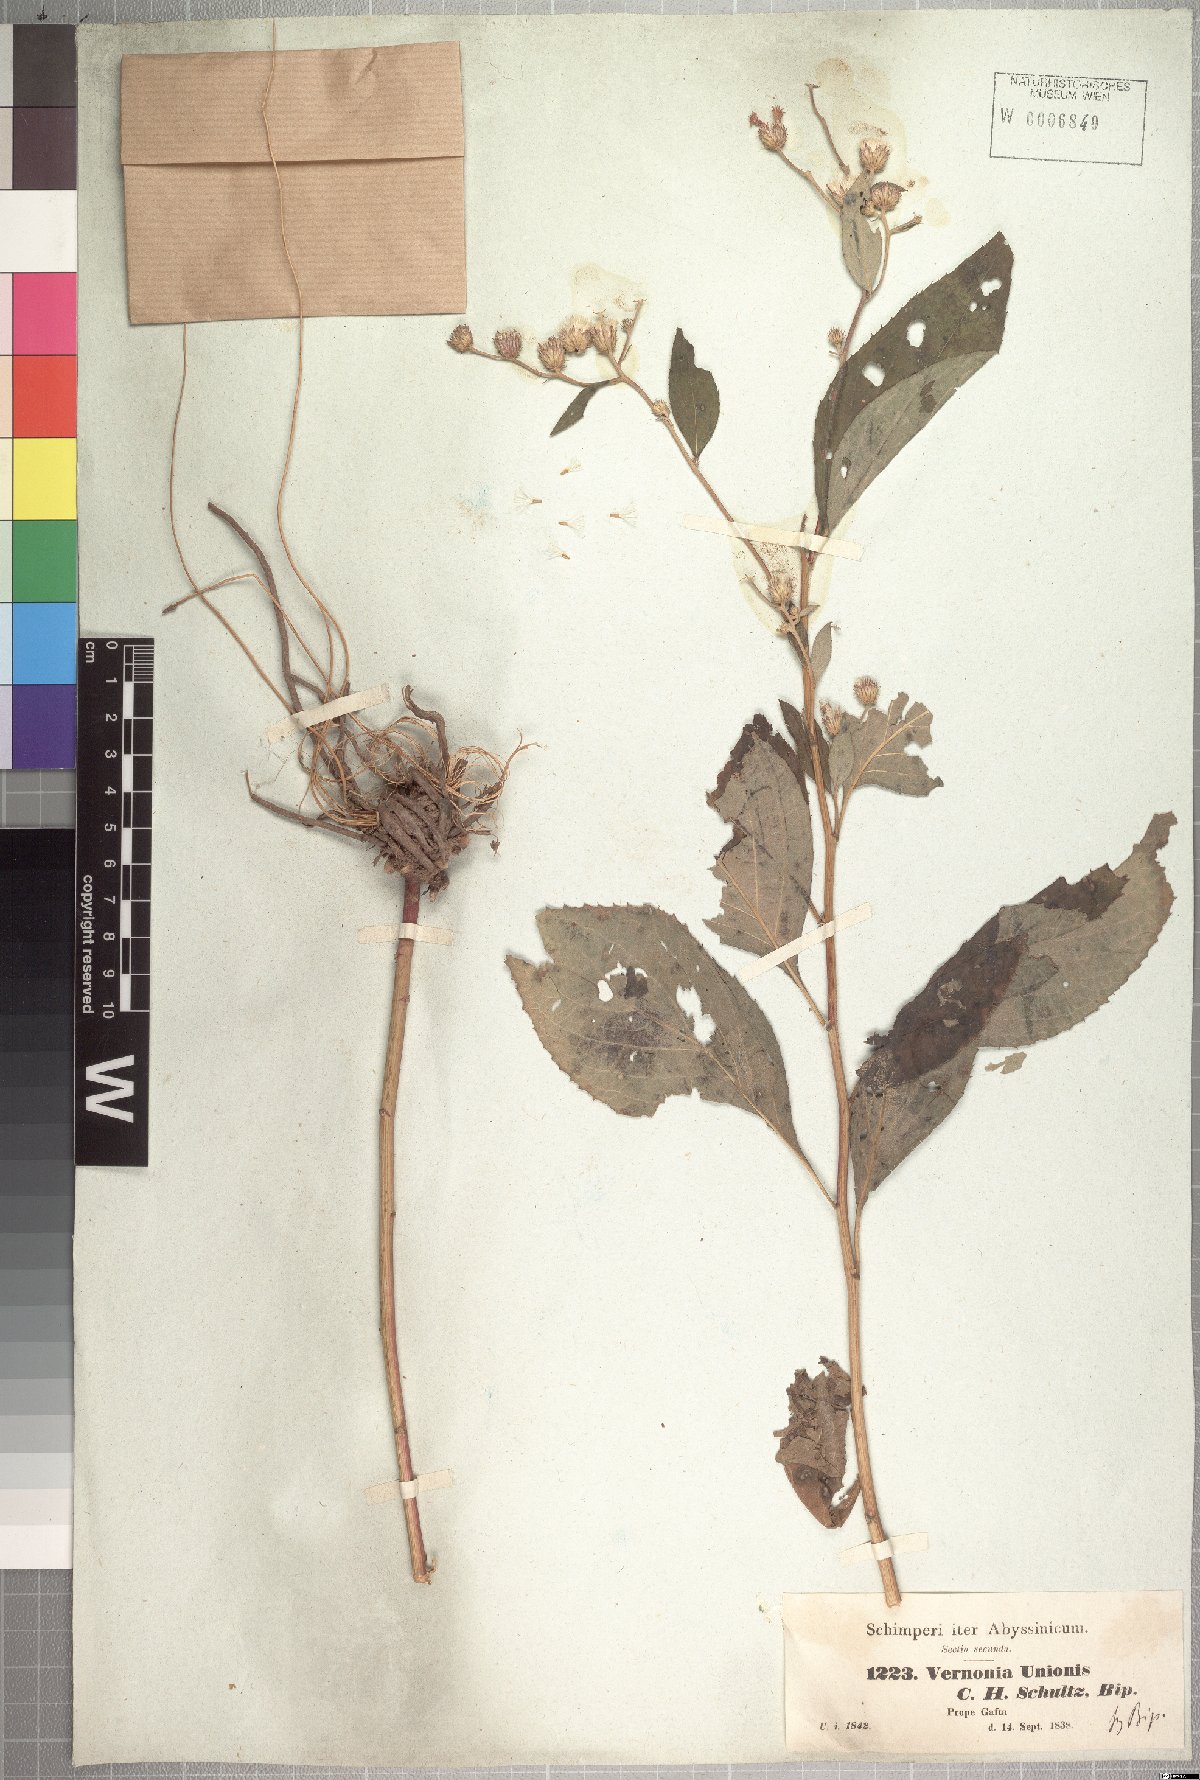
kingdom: Plantae
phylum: Tracheophyta
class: Magnoliopsida
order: Asterales
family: Asteraceae
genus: Orbivestus
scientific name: Orbivestus unionis
